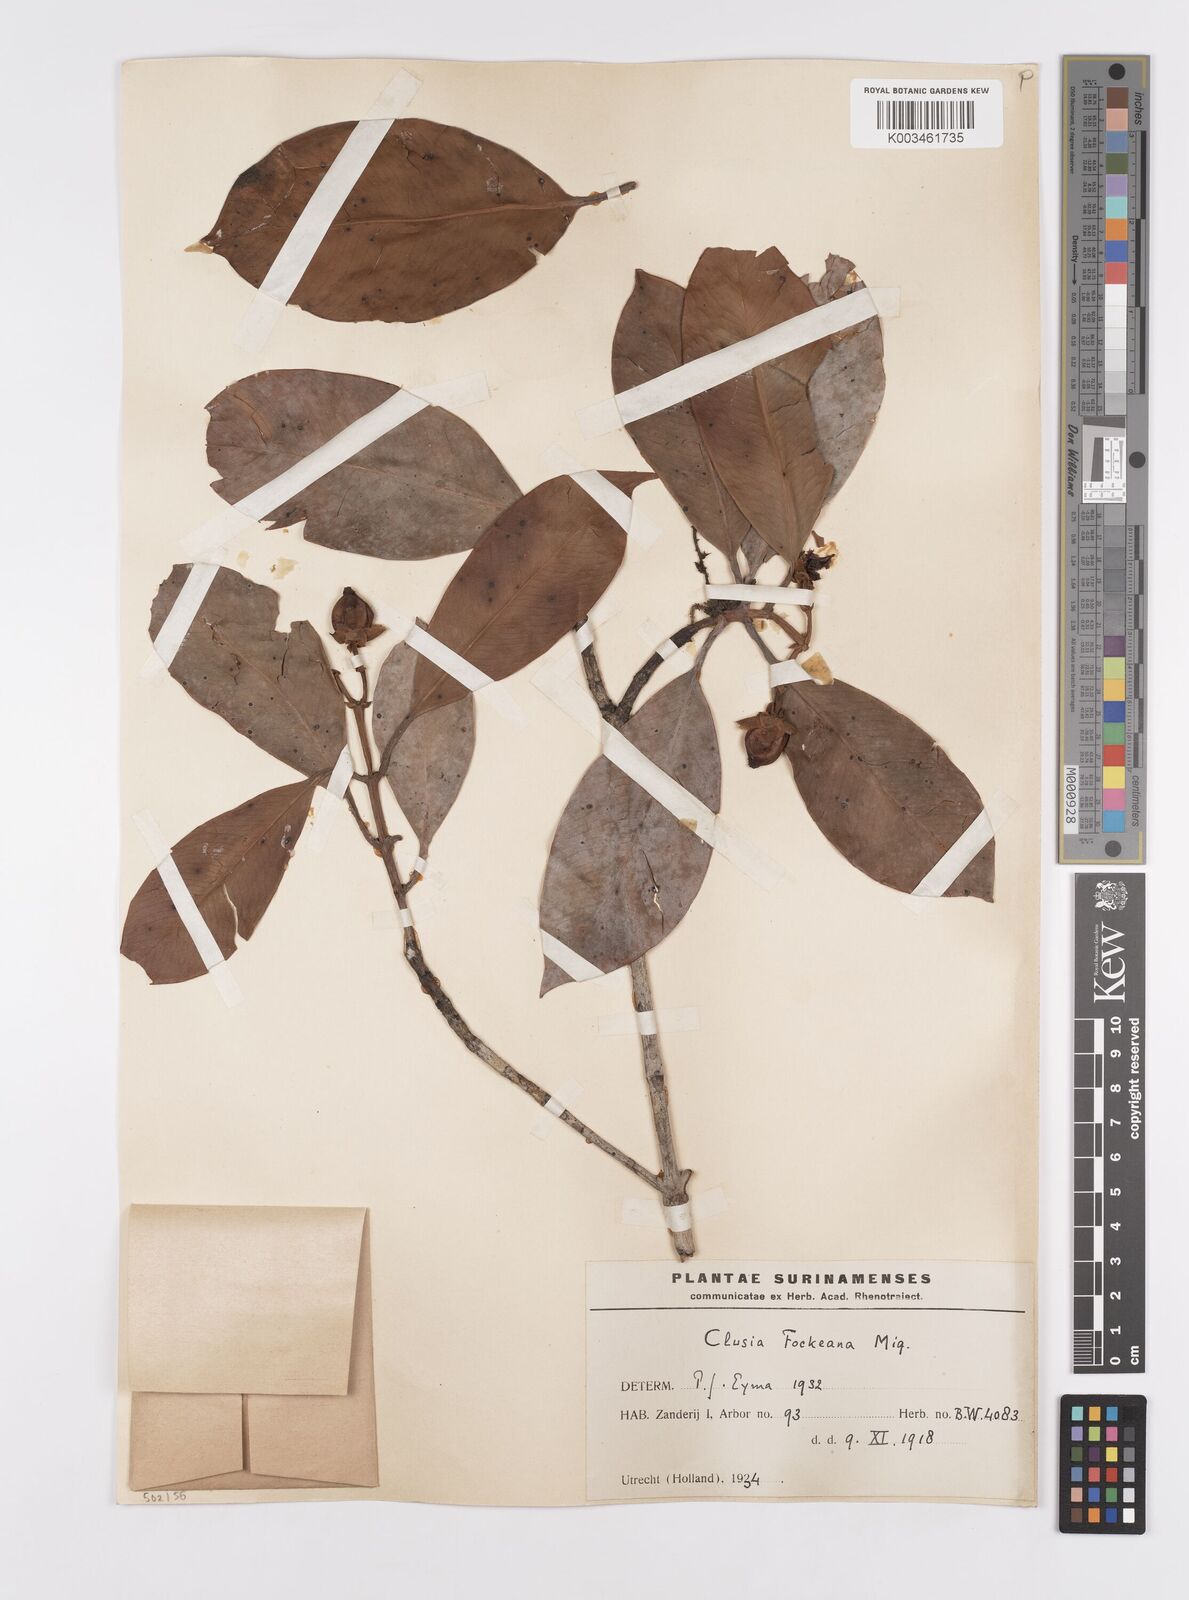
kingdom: Plantae
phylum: Tracheophyta
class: Magnoliopsida
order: Malpighiales
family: Clusiaceae
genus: Clusia
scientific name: Clusia fockeana
